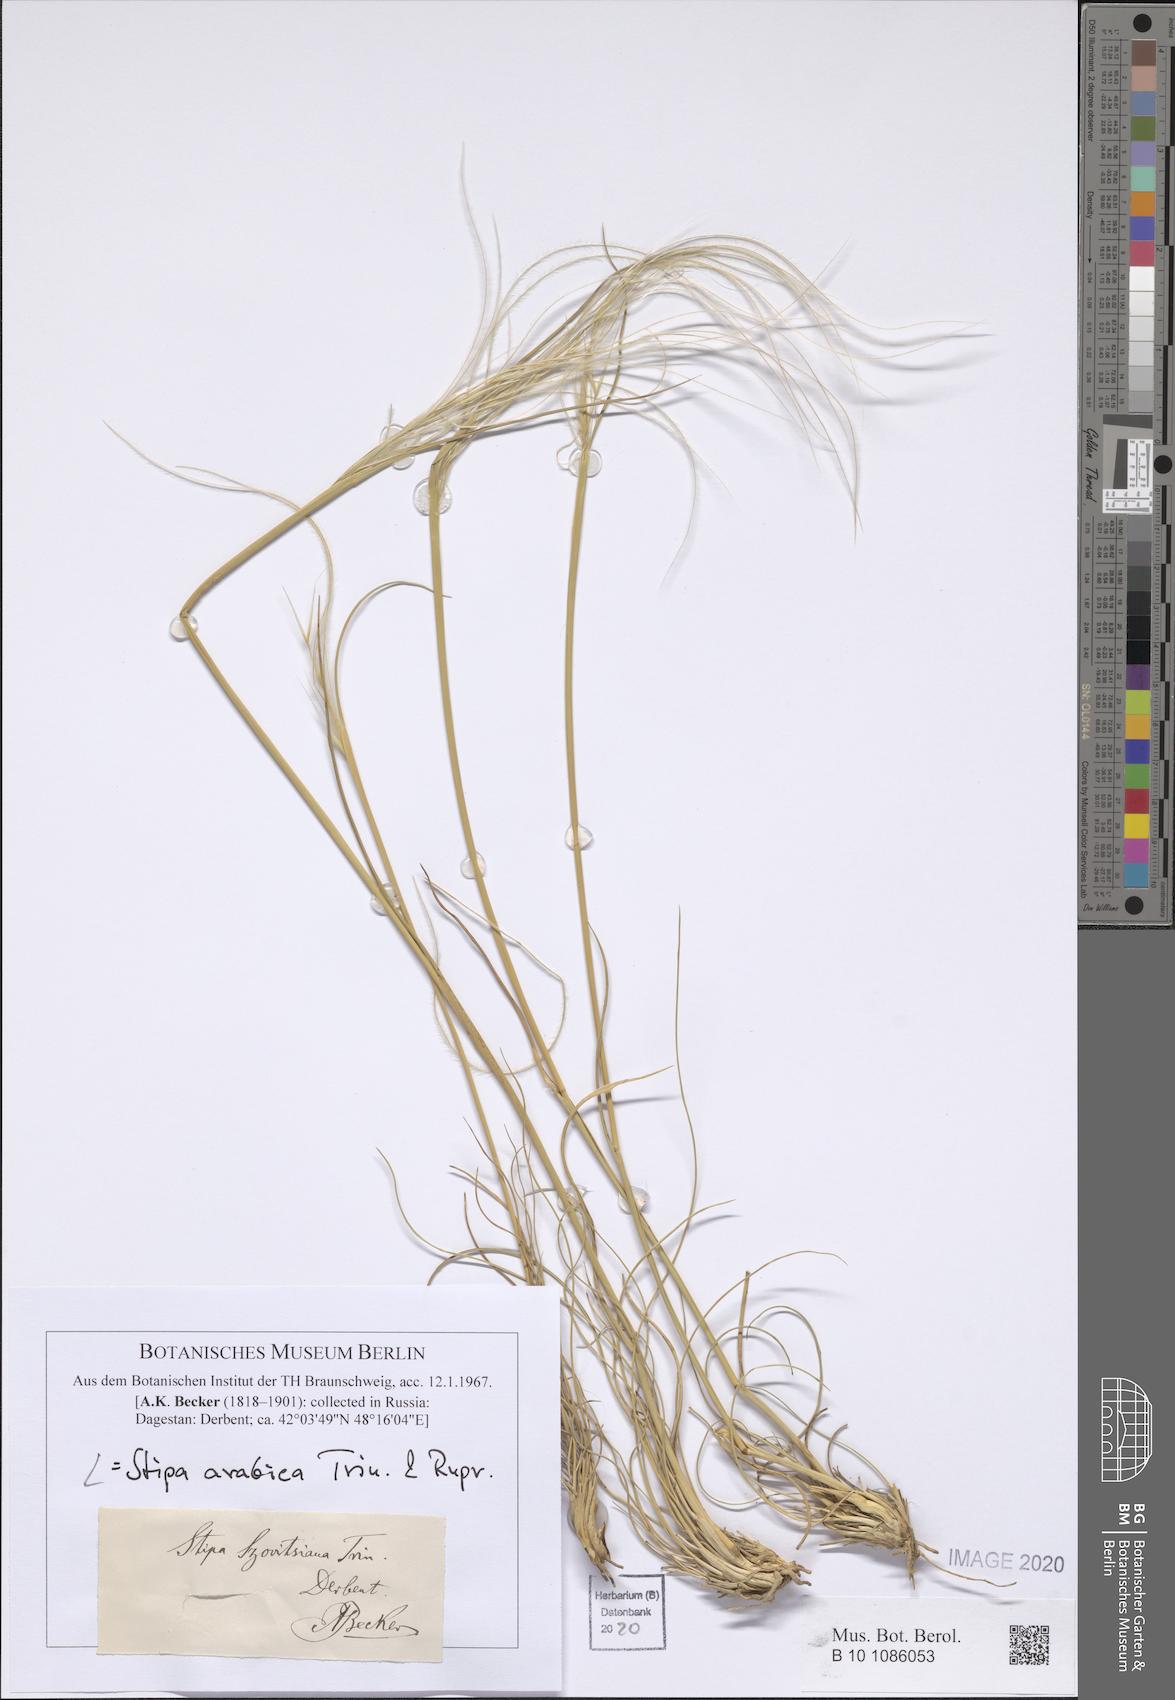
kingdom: Plantae
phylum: Tracheophyta
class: Liliopsida
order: Poales
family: Poaceae
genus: Stipa
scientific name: Stipa arabica
